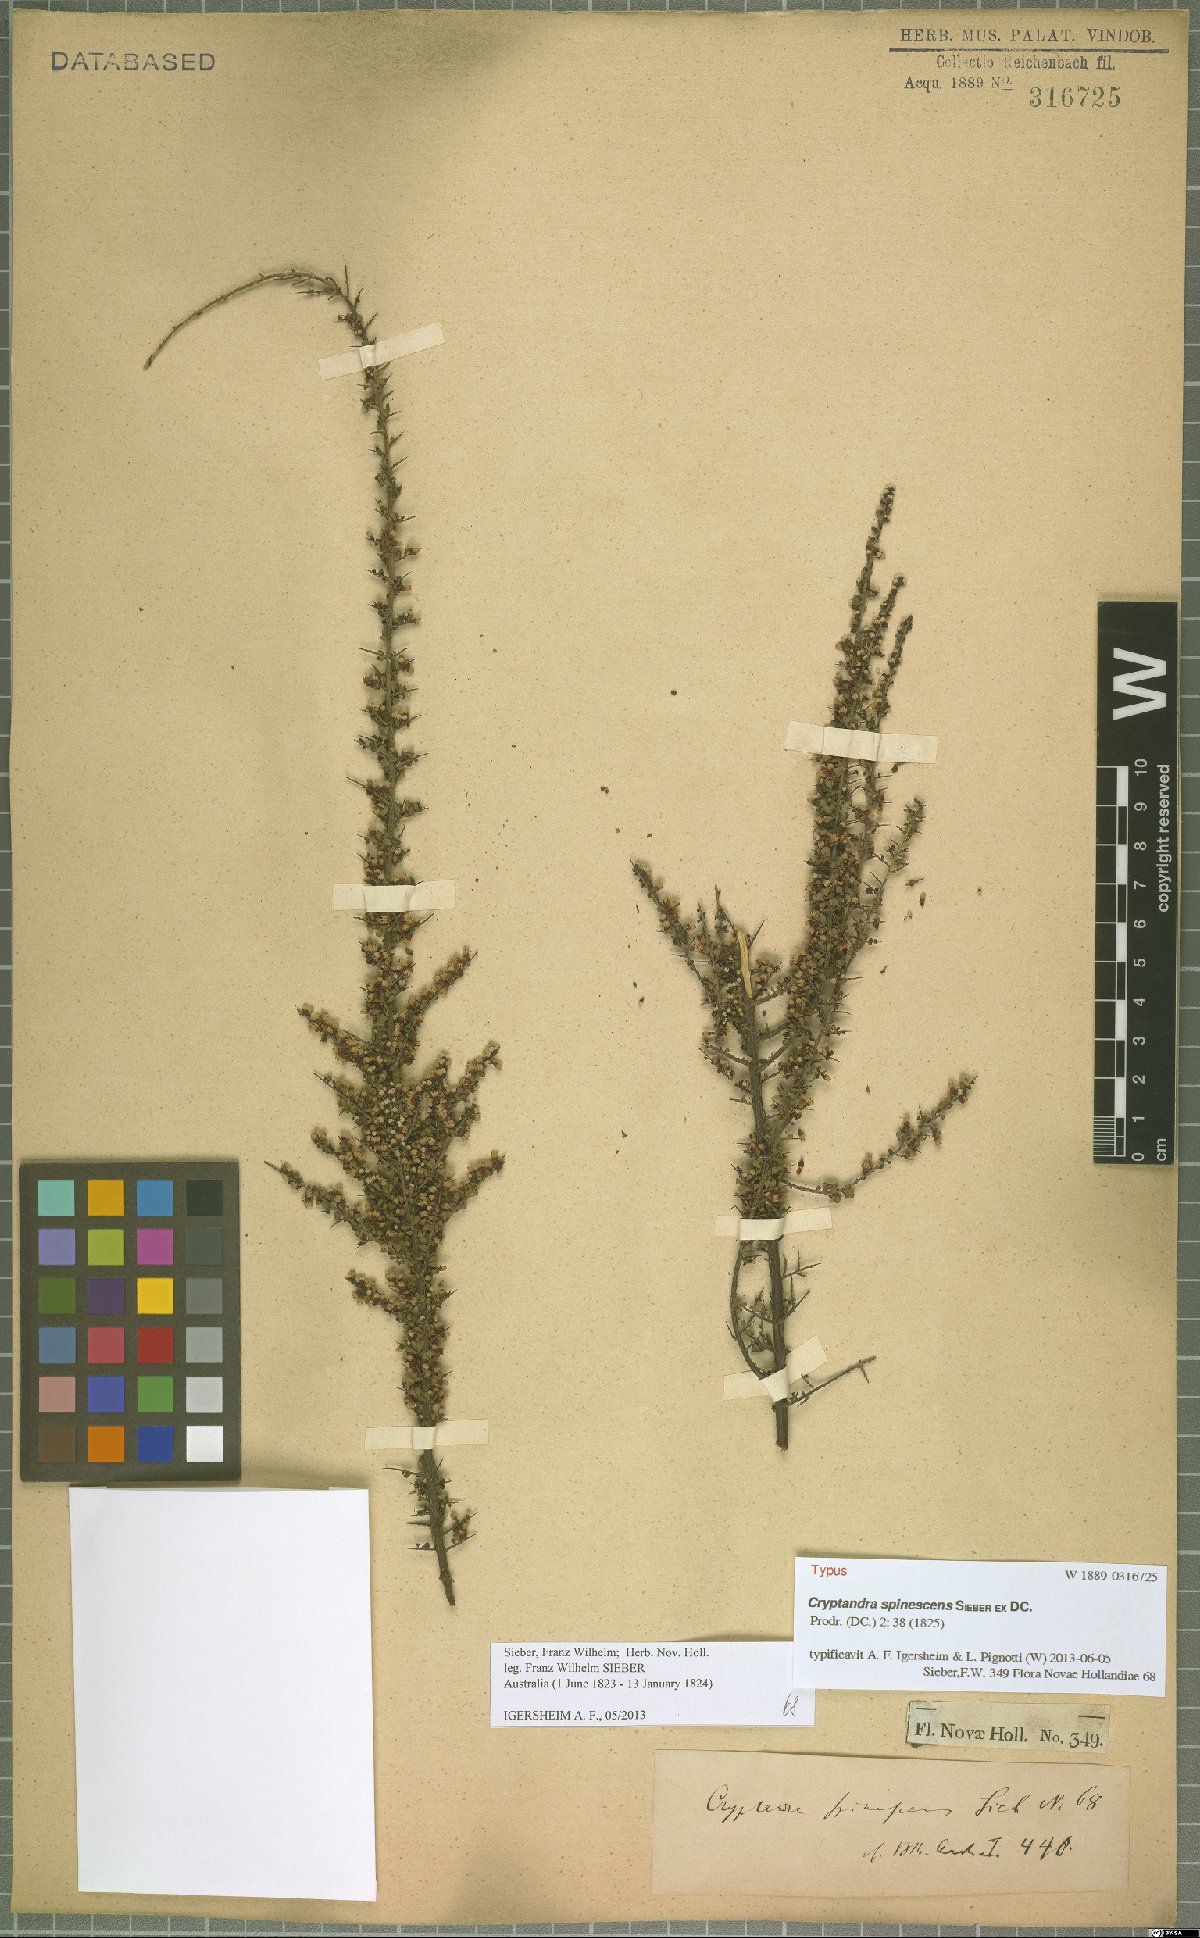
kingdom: Plantae
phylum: Tracheophyta
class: Magnoliopsida
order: Rosales
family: Rhamnaceae
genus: Cryptandra
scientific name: Cryptandra spinescens
